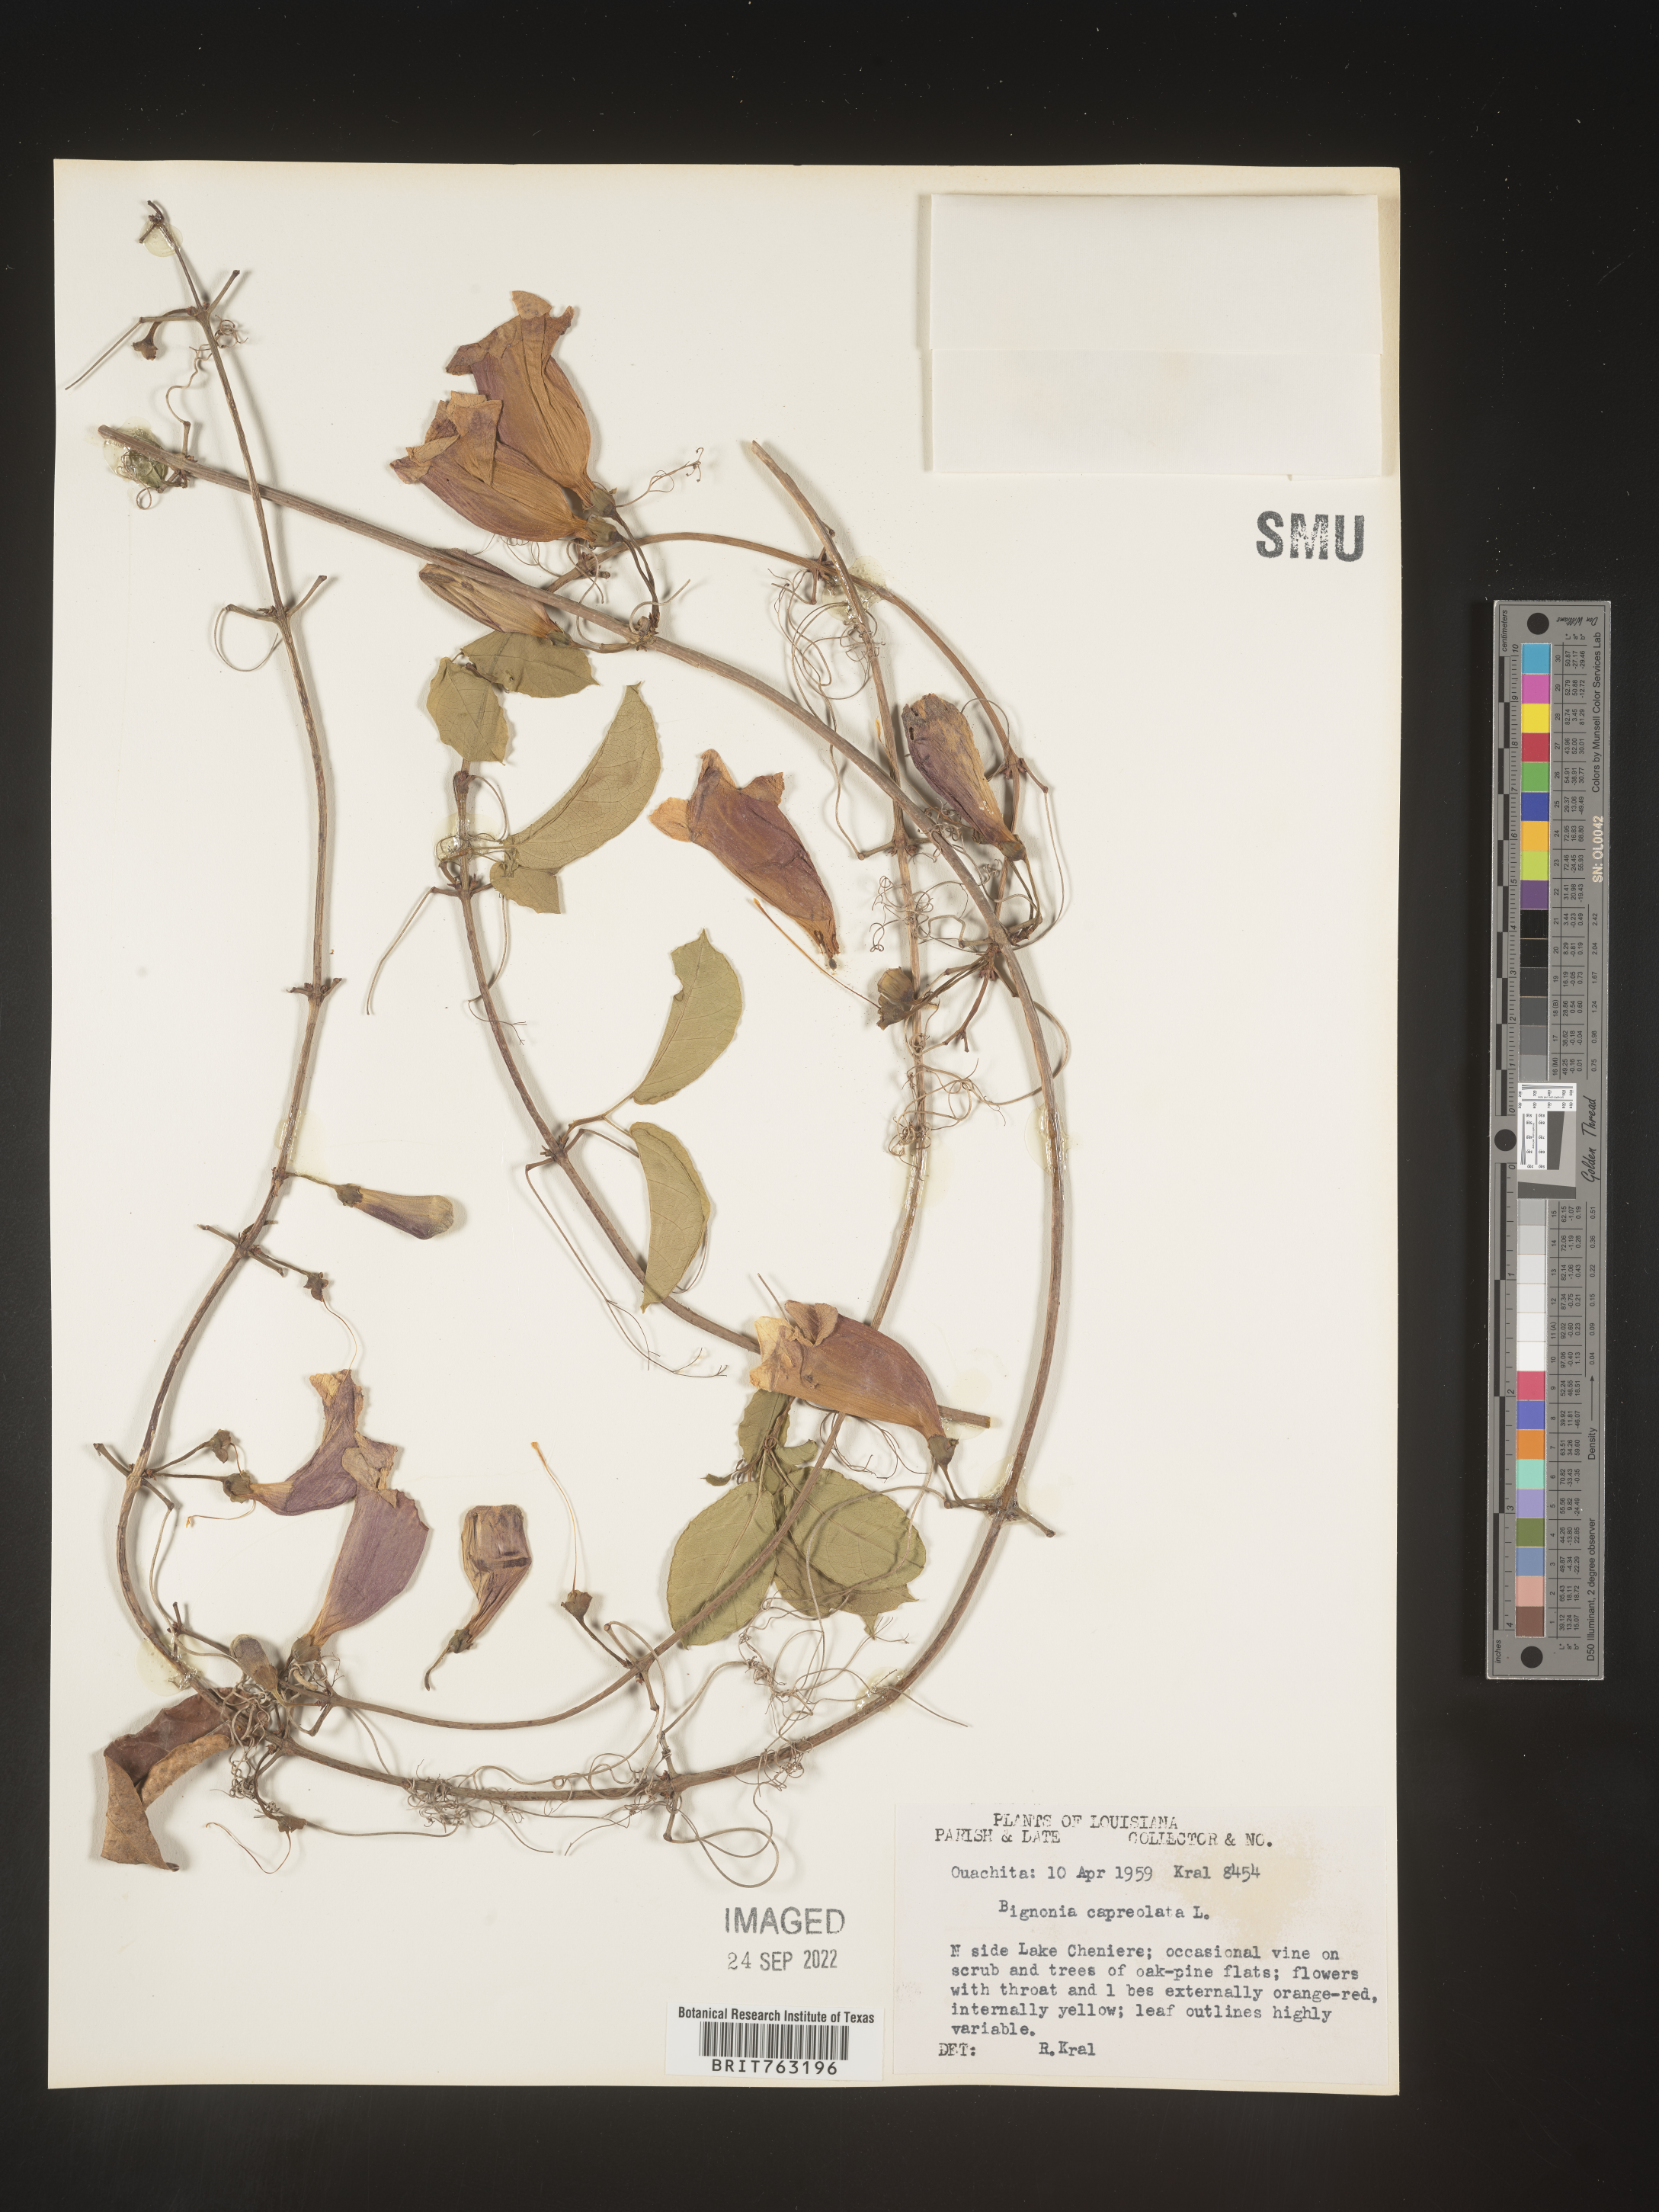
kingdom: Plantae
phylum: Tracheophyta
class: Magnoliopsida
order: Lamiales
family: Bignoniaceae
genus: Bignonia
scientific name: Bignonia capreolata
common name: Crossvine
